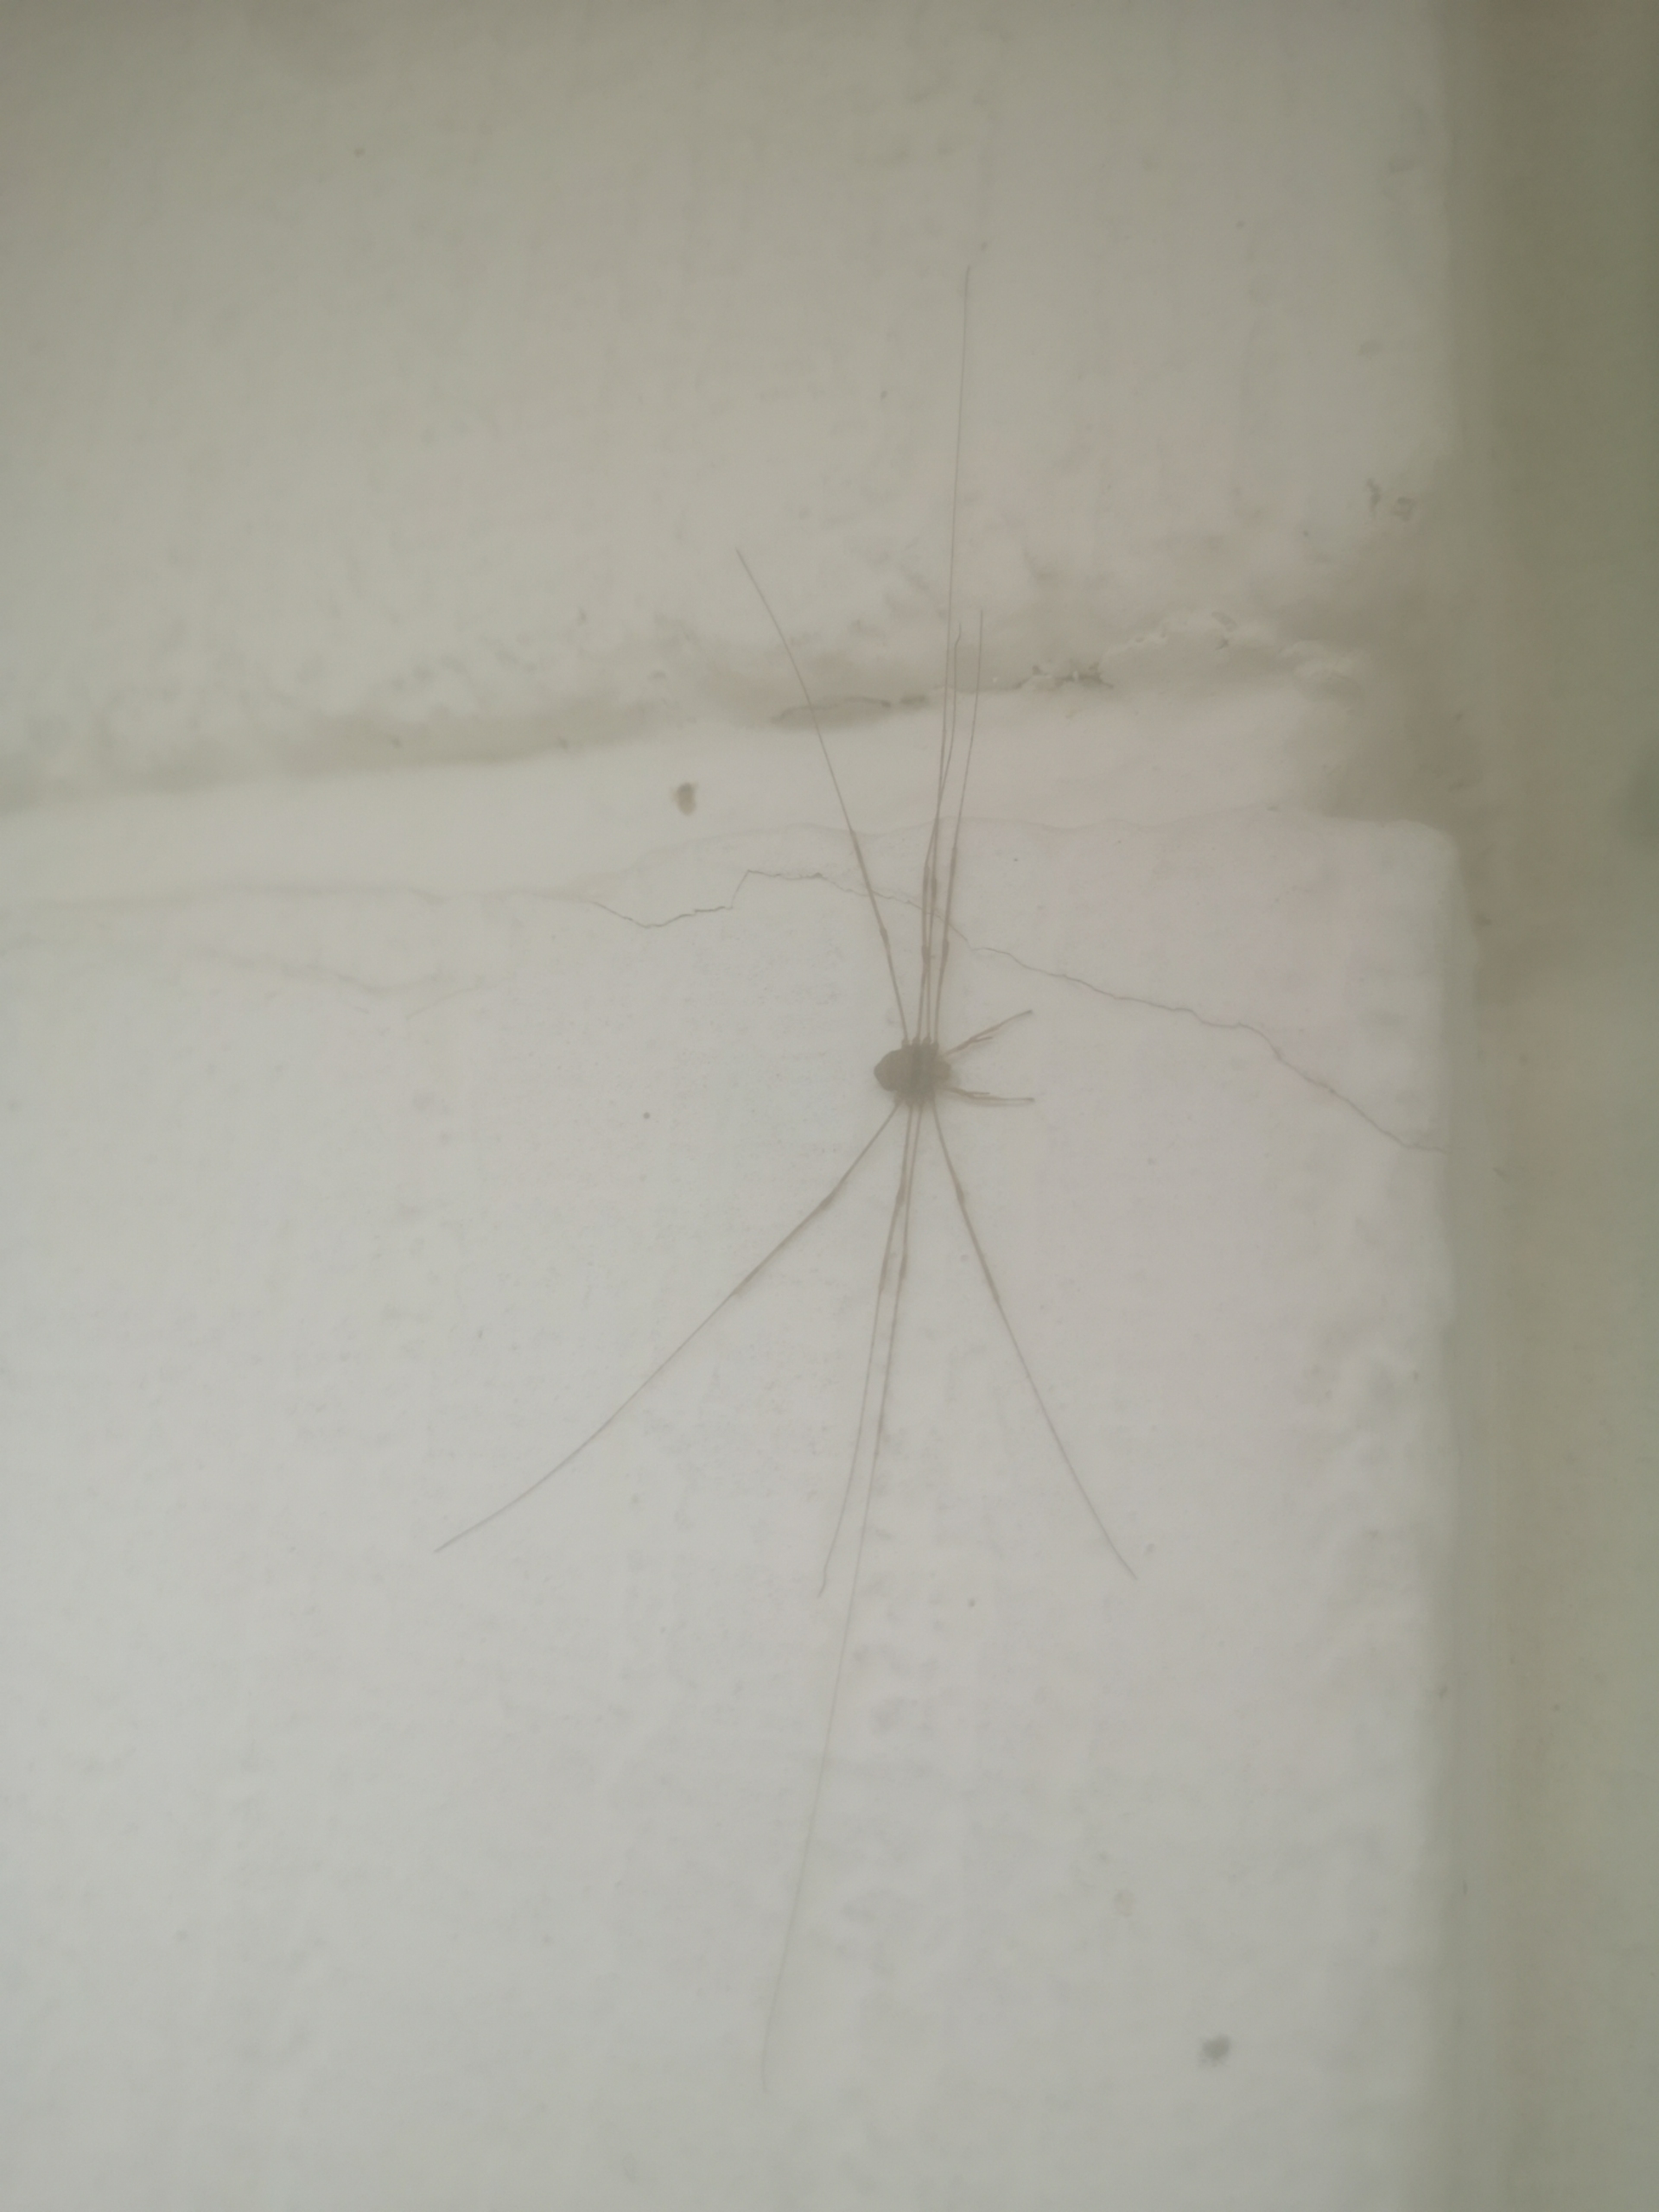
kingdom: Animalia
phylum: Arthropoda
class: Arachnida
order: Opiliones
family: Phalangiidae
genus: Dicranopalpus
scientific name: Dicranopalpus ramosus
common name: Gaffelmejer
